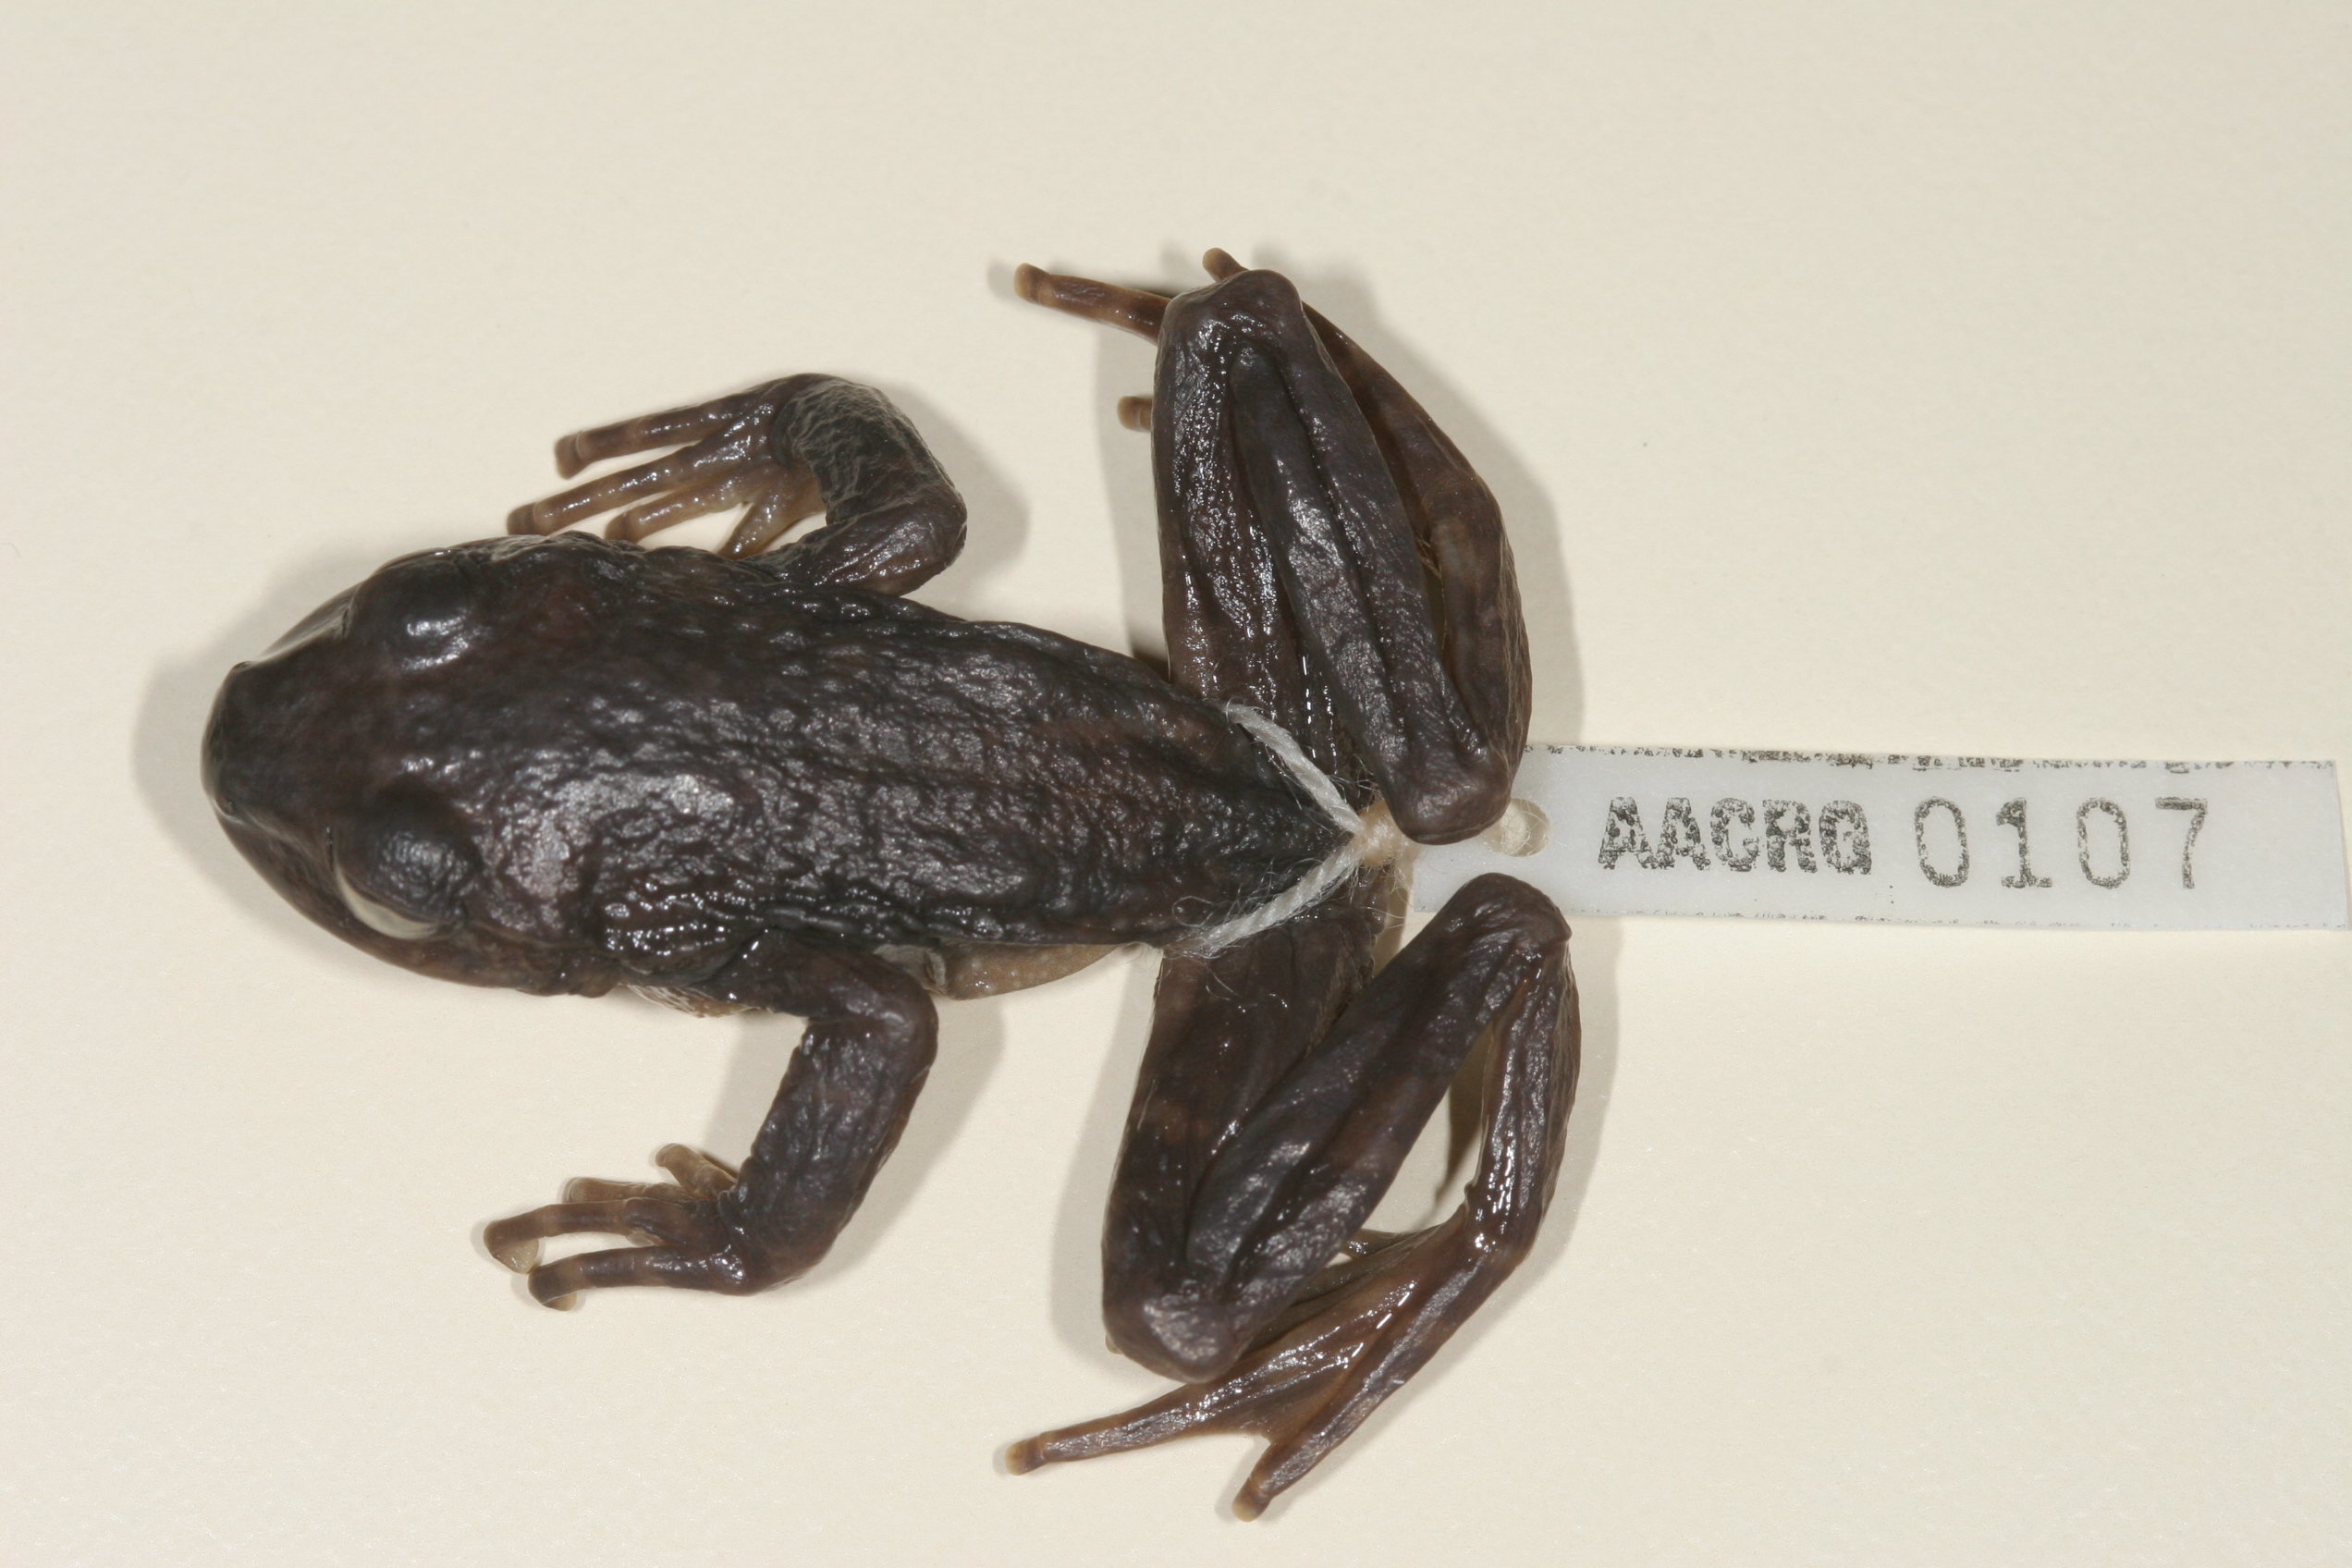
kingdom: Animalia
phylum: Chordata
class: Amphibia
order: Anura
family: Heleophrynidae
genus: Hadromophryne
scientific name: Hadromophryne natalensis
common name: Natal ghost frog
